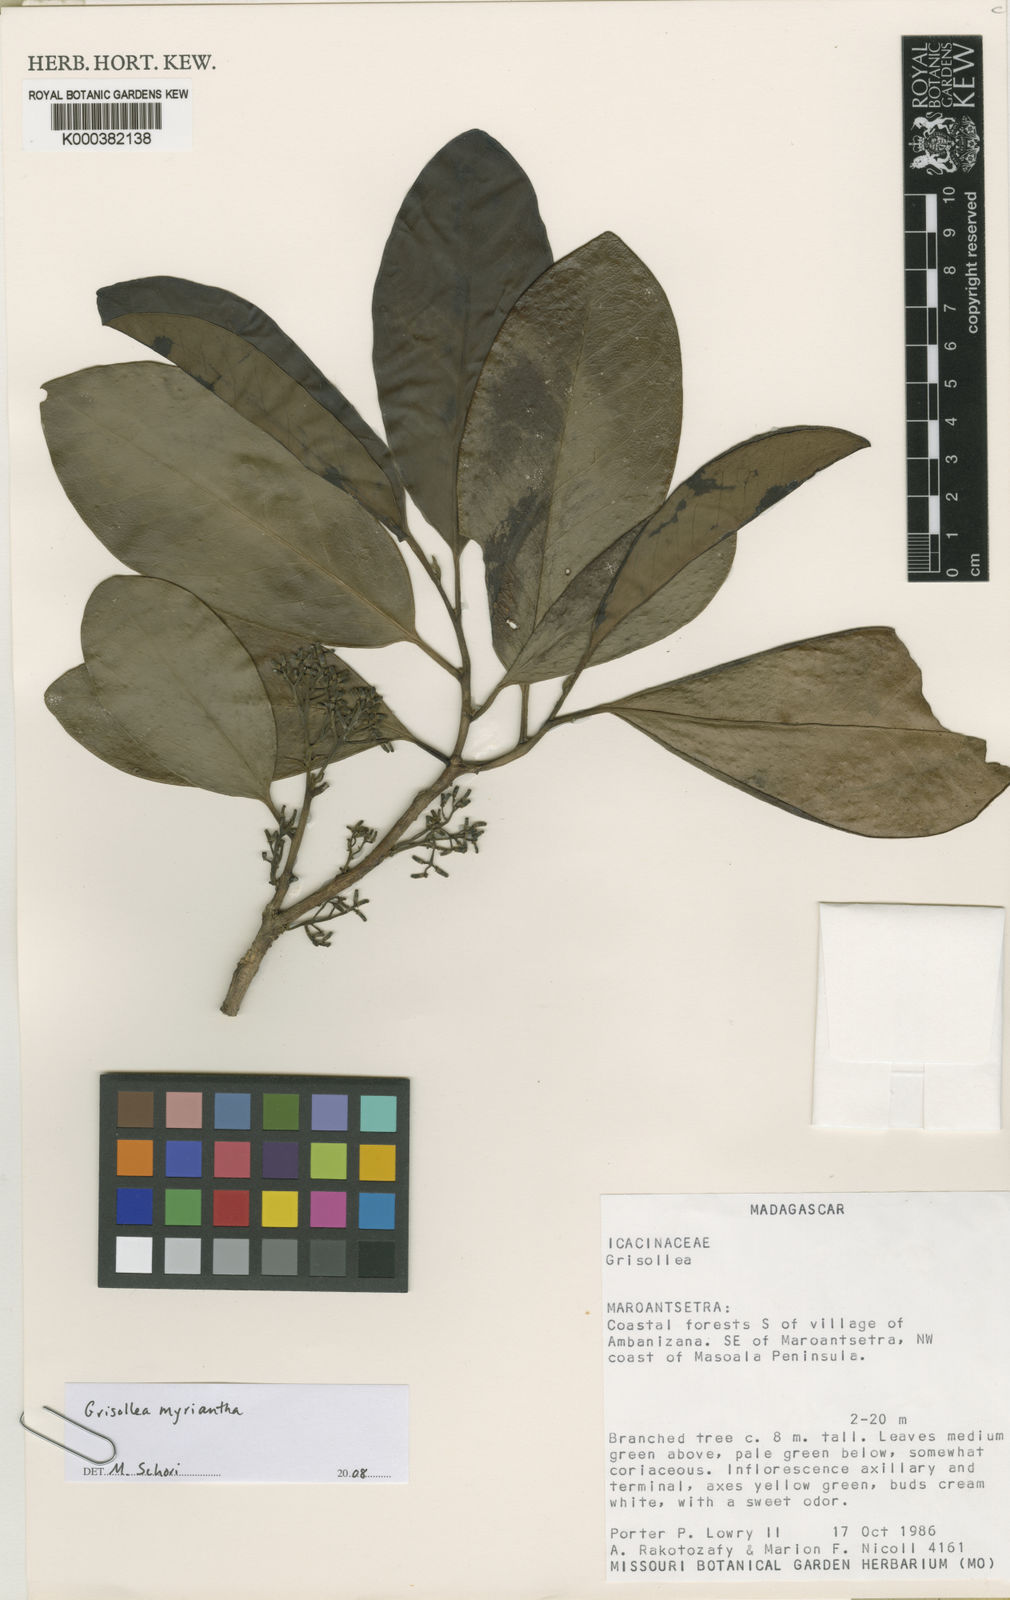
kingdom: Plantae
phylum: Tracheophyta
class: Magnoliopsida
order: Cardiopteridales
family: Stemonuraceae
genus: Grisollea
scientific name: Grisollea myriantha
